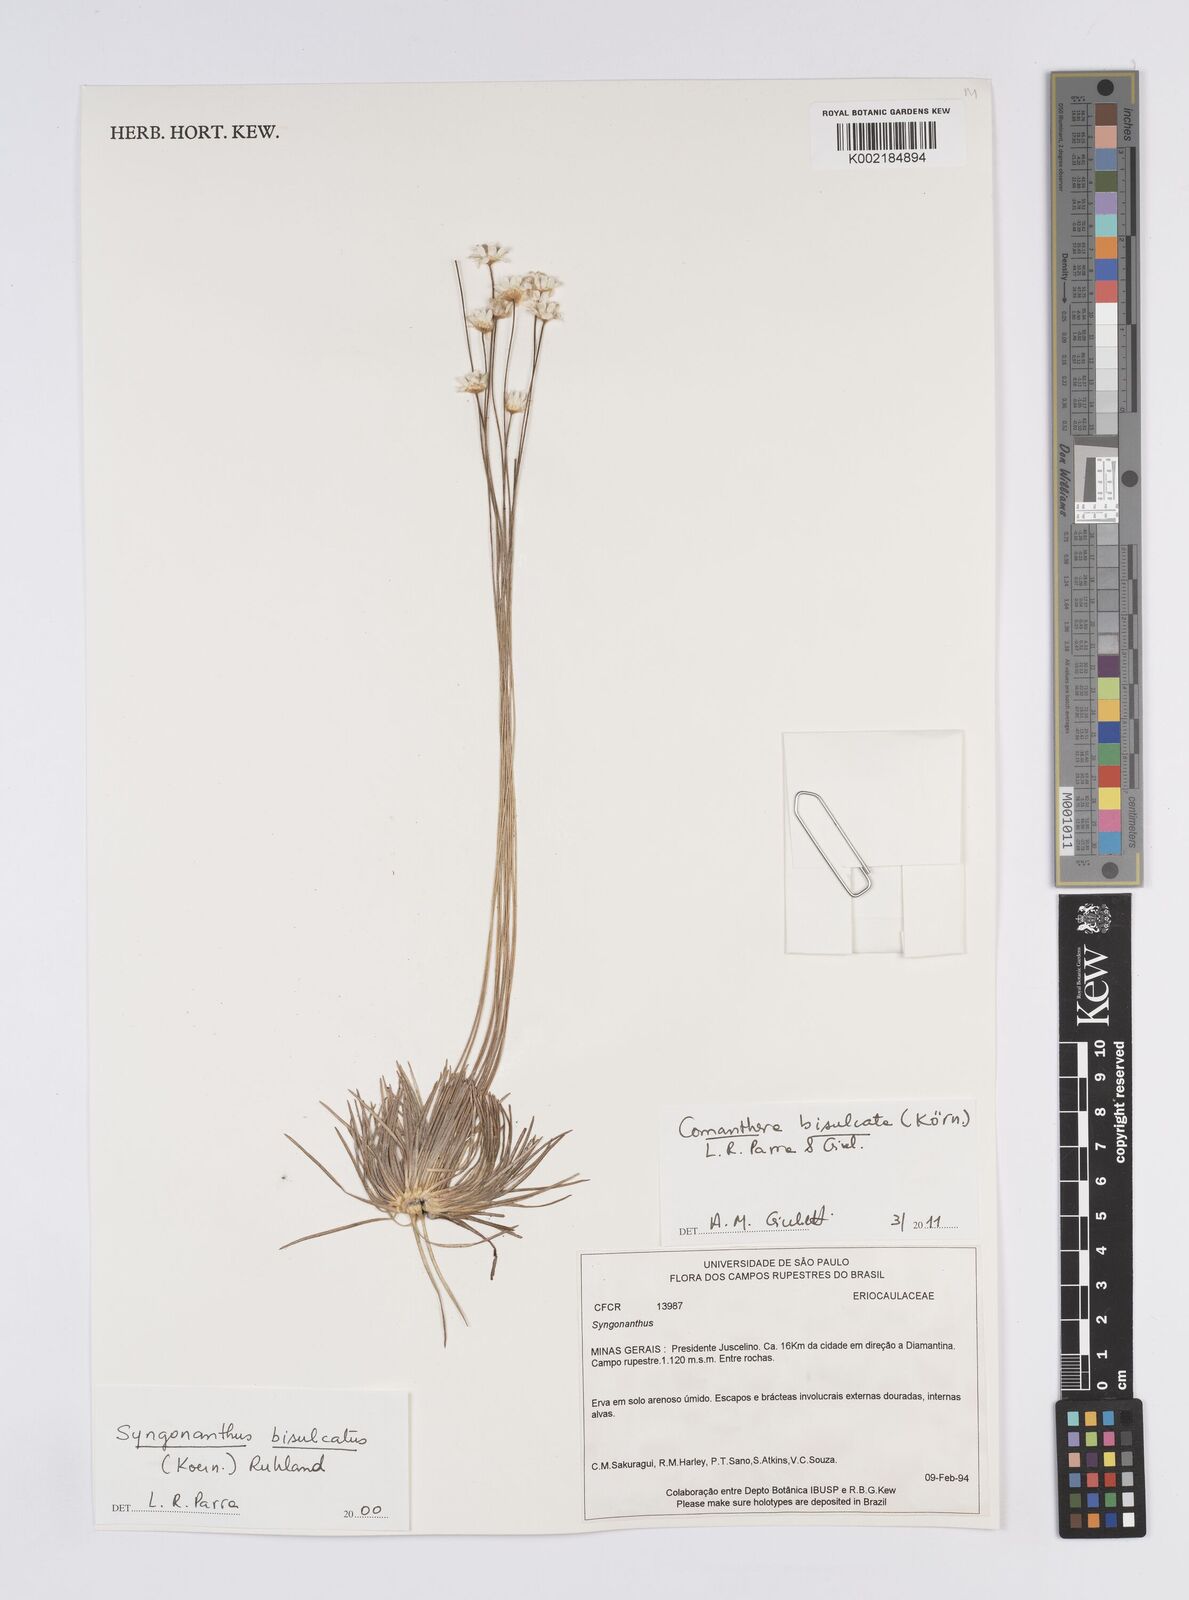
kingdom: Plantae
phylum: Tracheophyta
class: Liliopsida
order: Poales
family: Eriocaulaceae
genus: Comanthera
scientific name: Comanthera bisulcata
